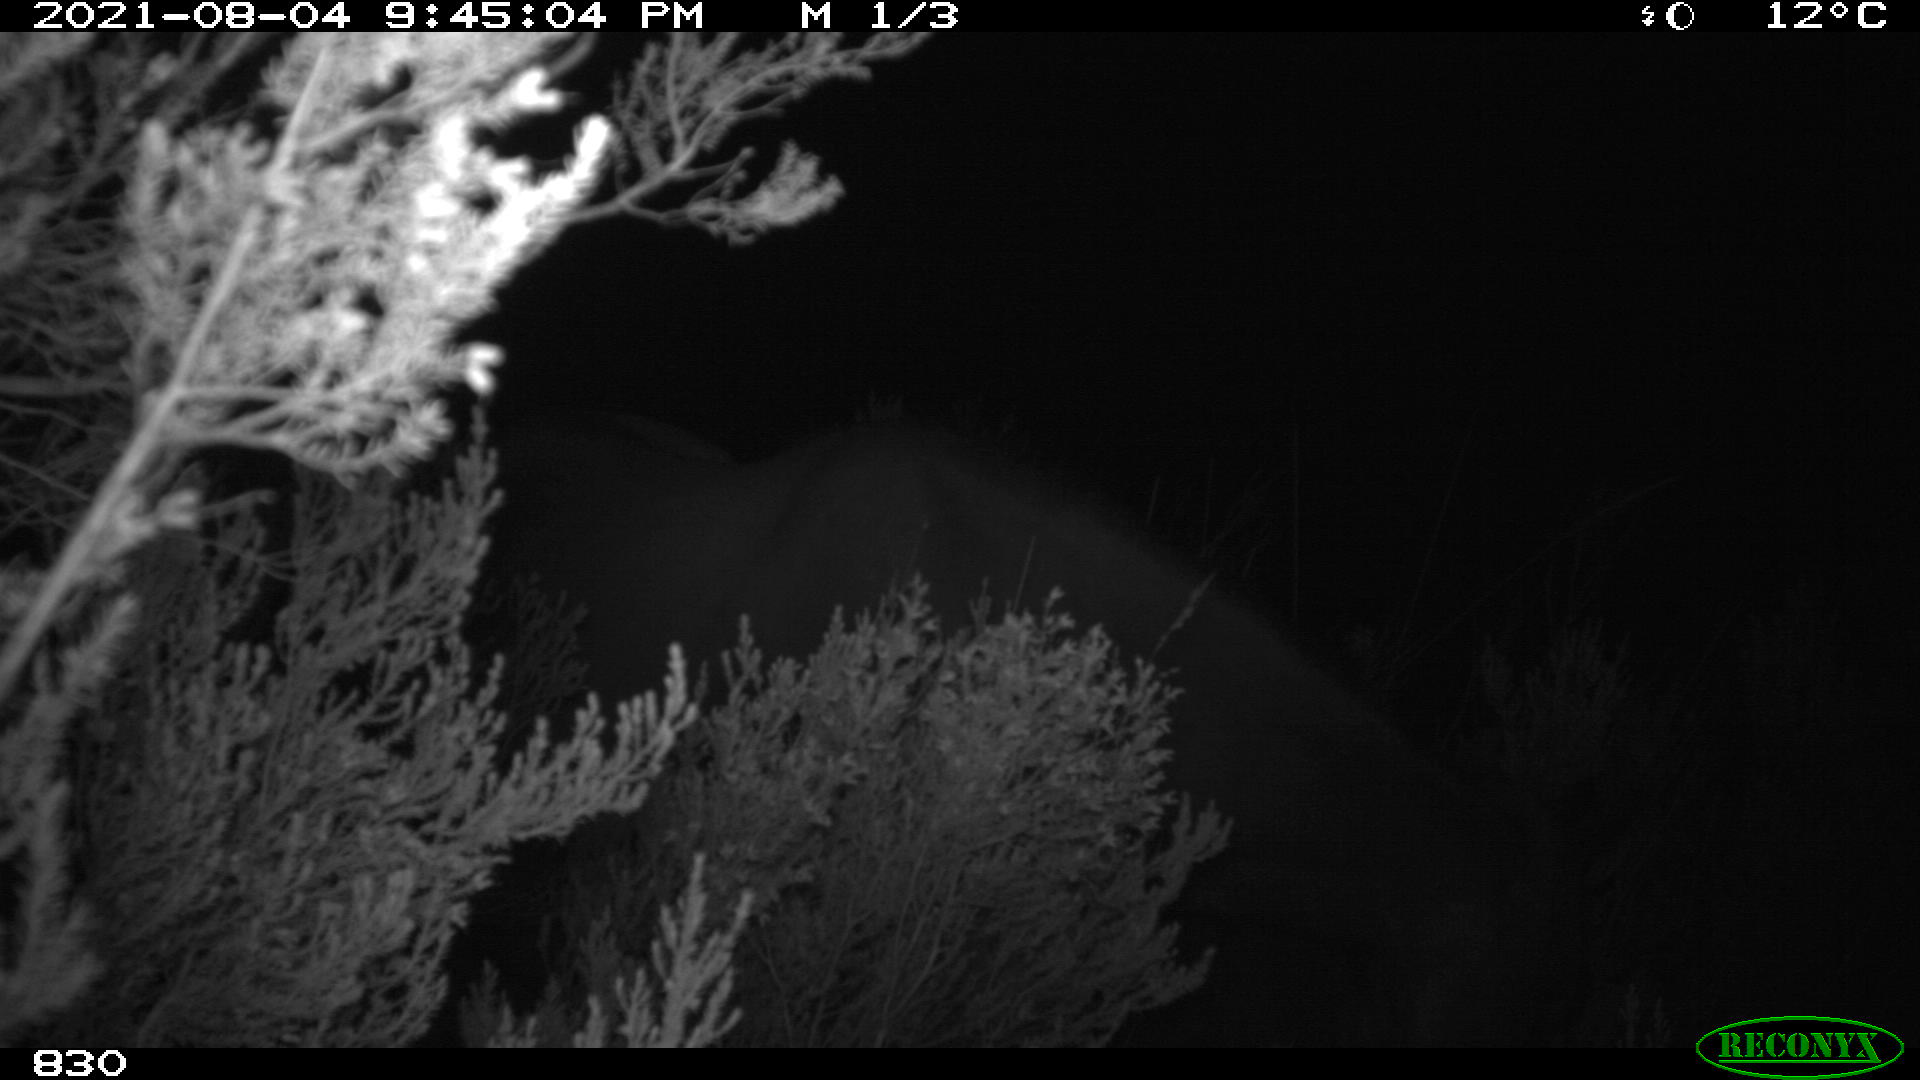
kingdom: Animalia
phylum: Chordata
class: Mammalia
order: Perissodactyla
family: Equidae
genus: Equus
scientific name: Equus caballus
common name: Horse
